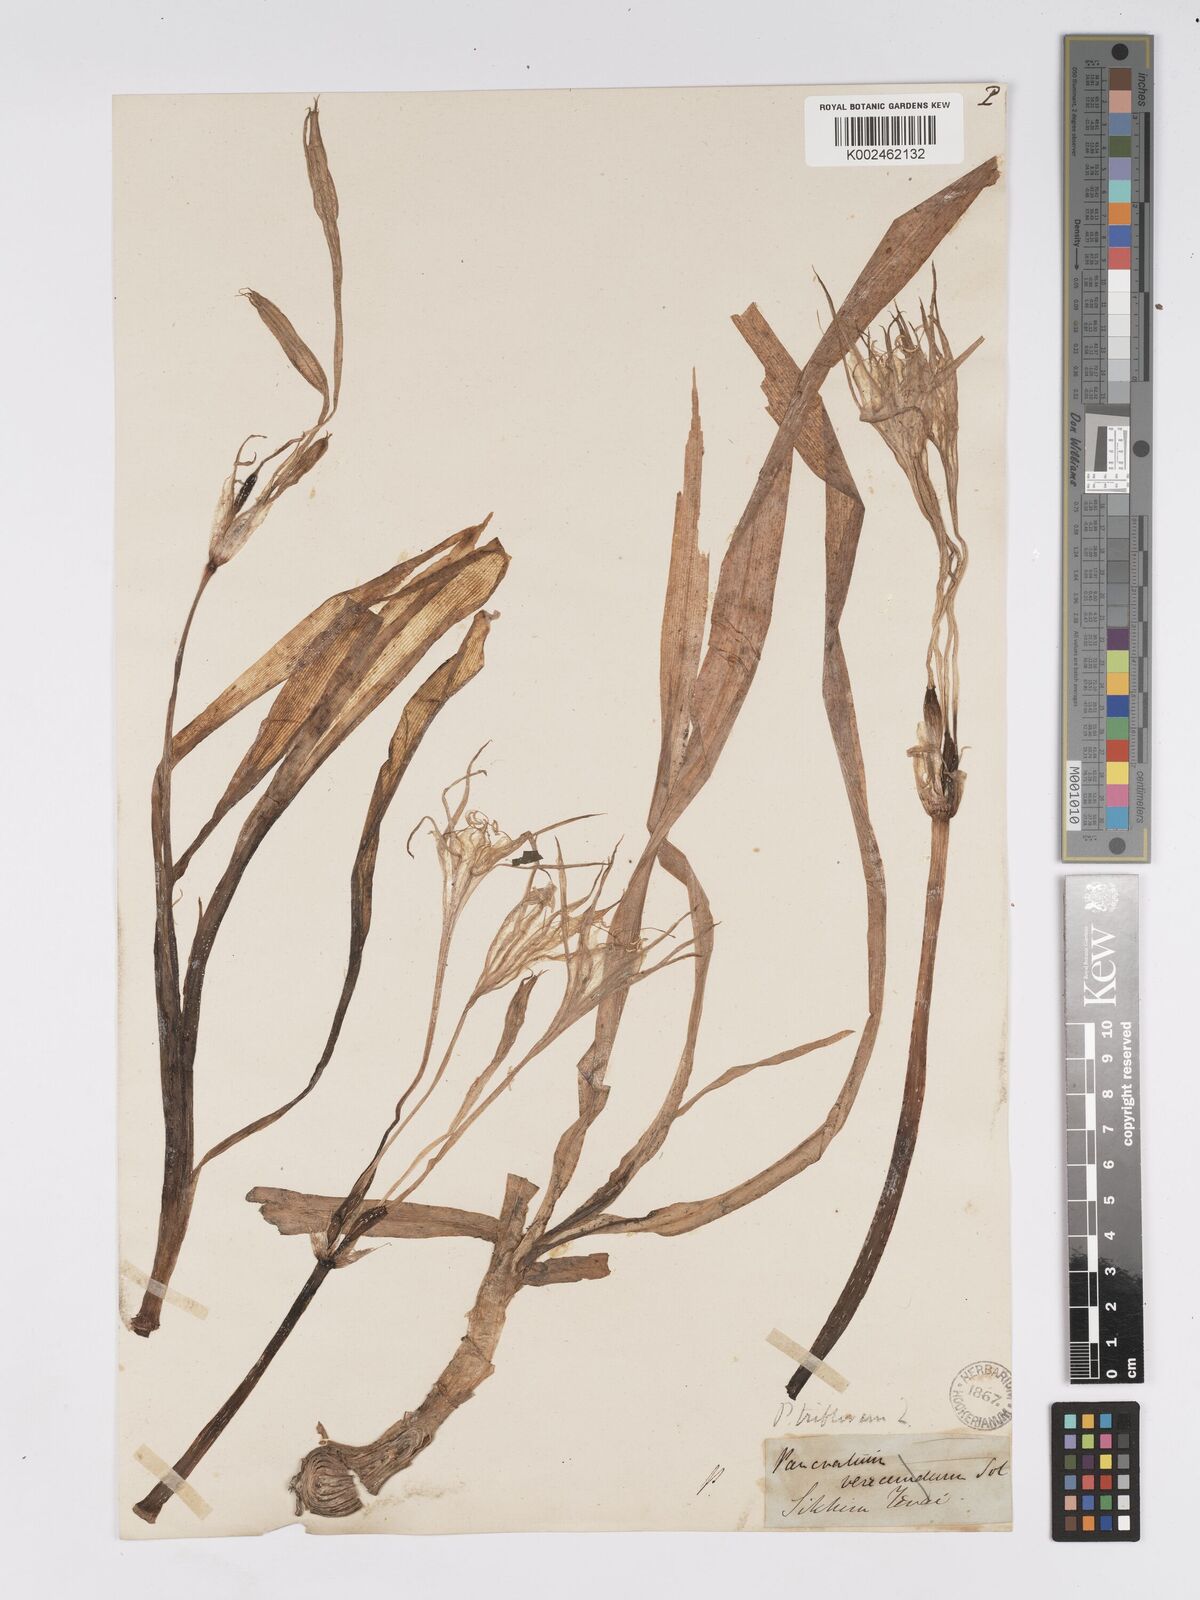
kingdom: Plantae
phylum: Tracheophyta
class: Liliopsida
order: Asparagales
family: Amaryllidaceae
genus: Pancratium
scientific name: Pancratium verecundum
